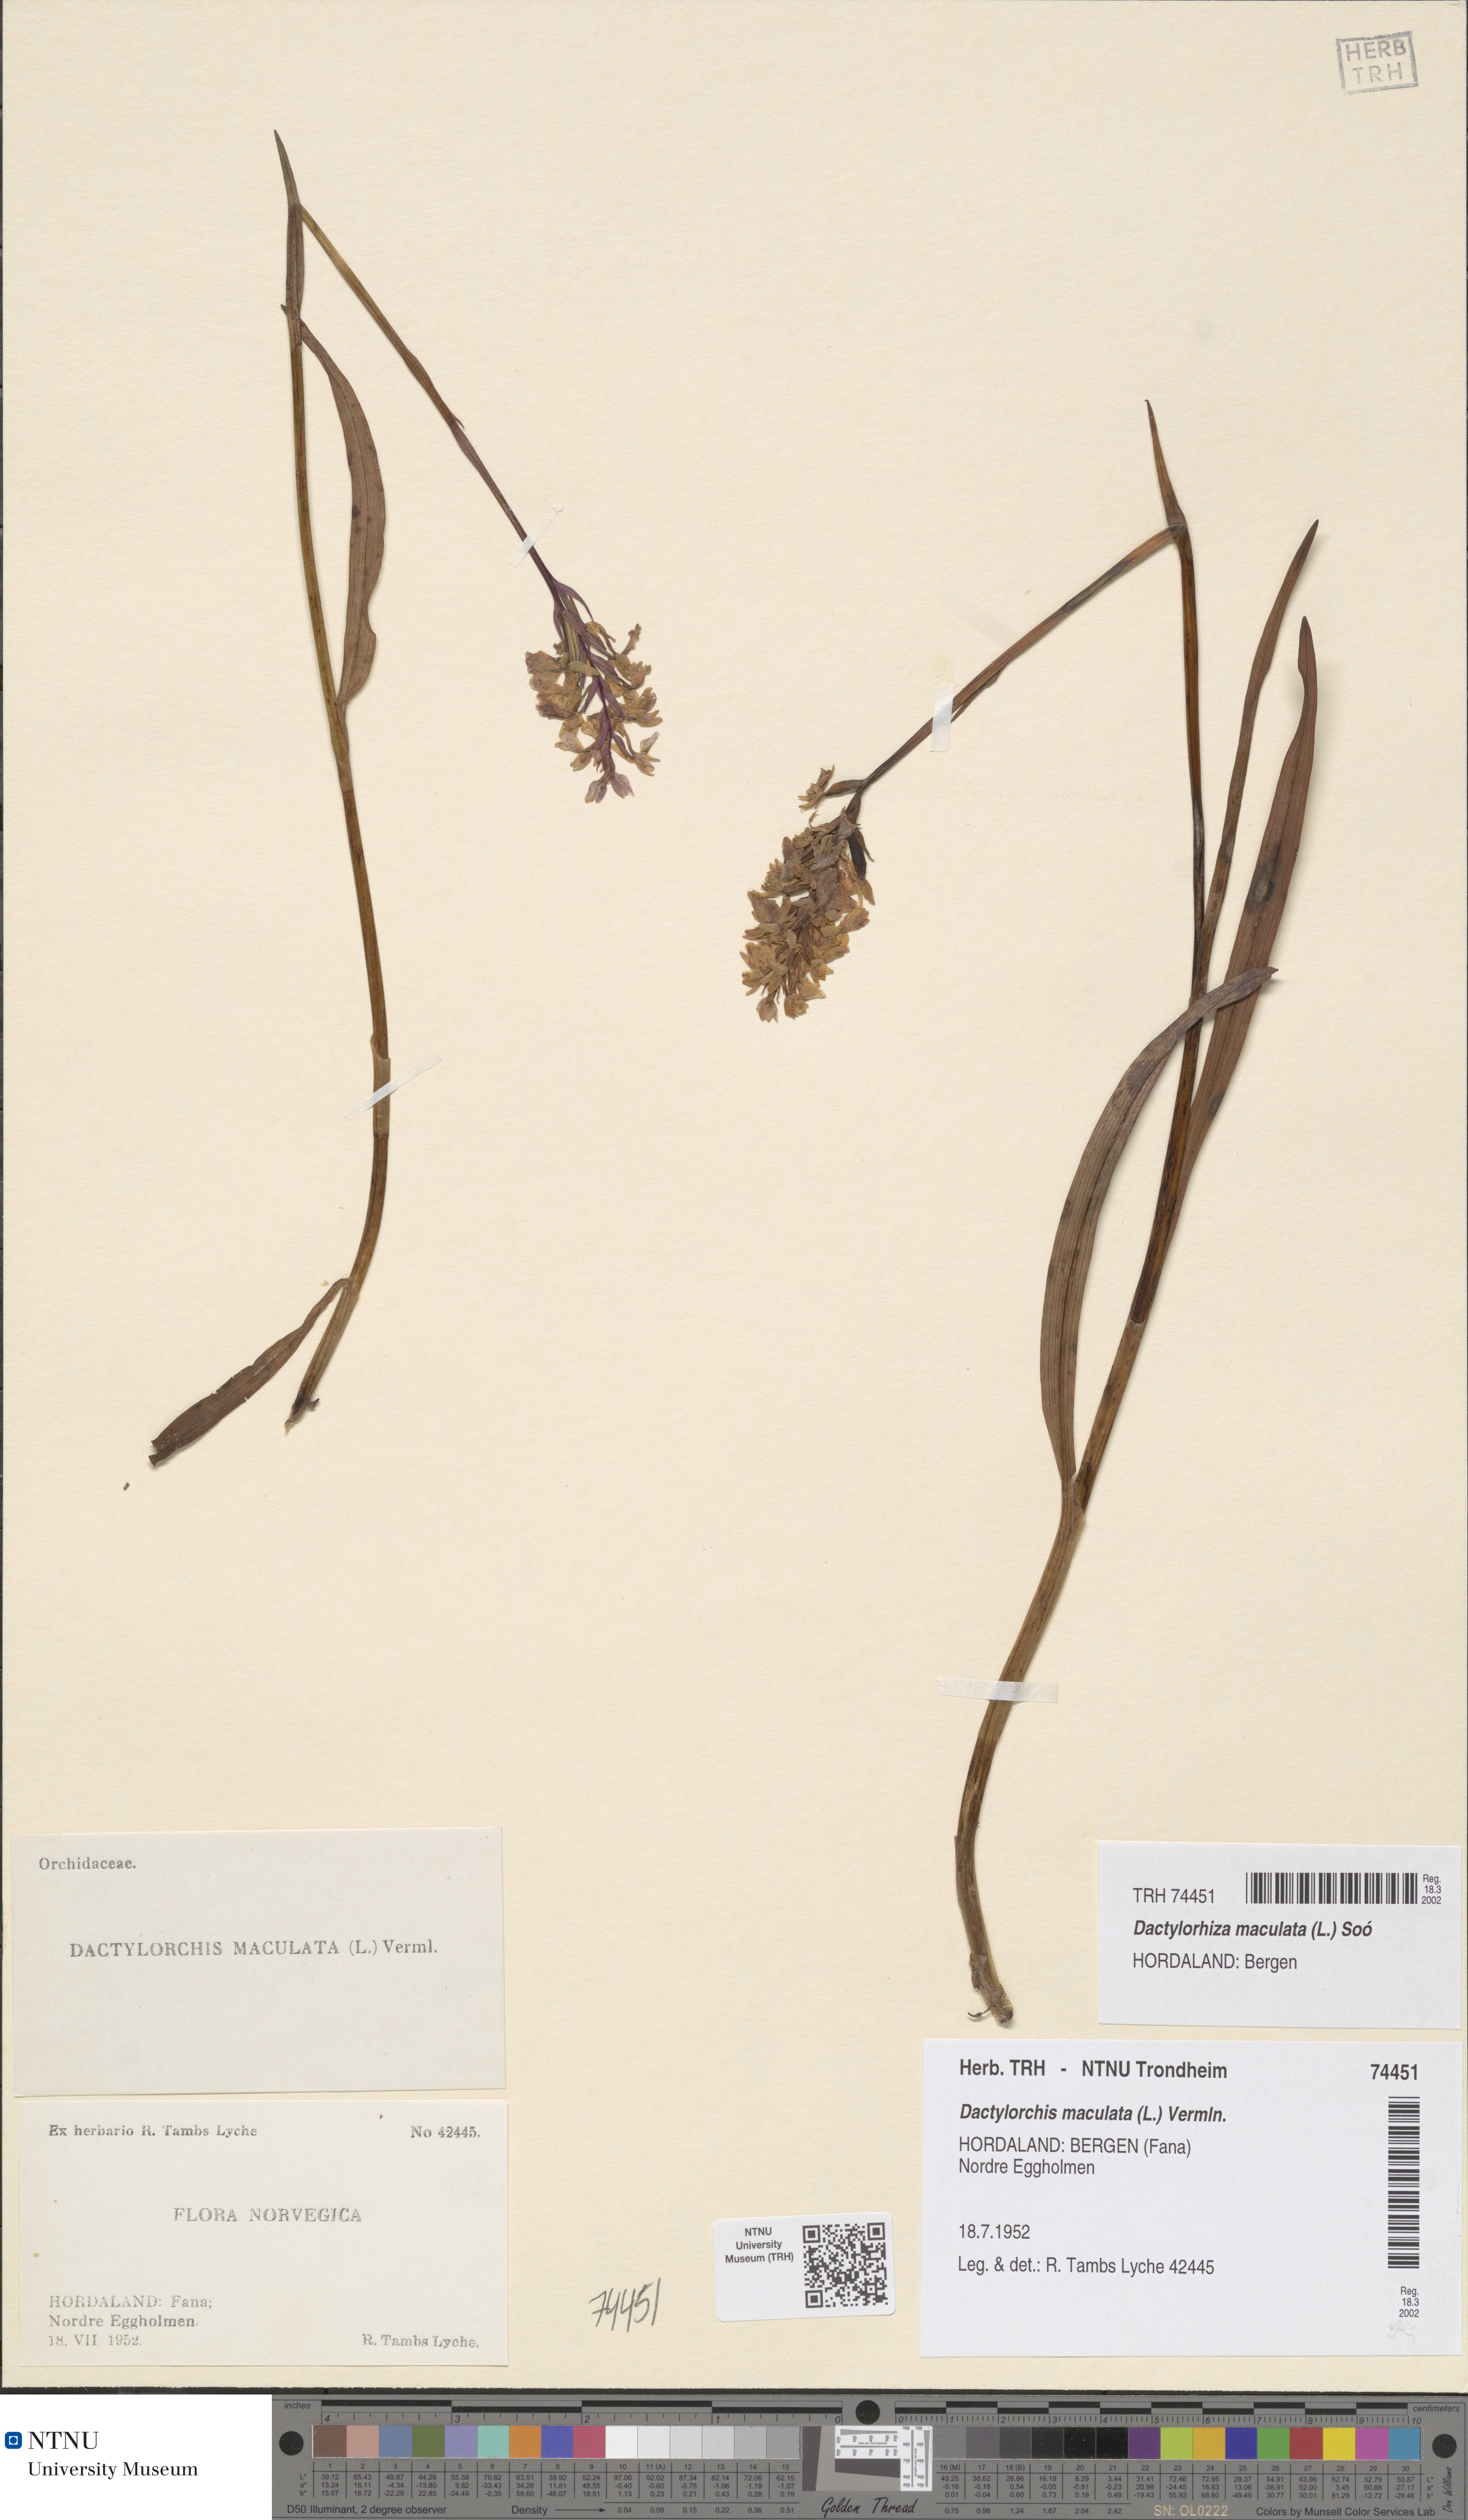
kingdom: Plantae
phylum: Tracheophyta
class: Liliopsida
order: Asparagales
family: Orchidaceae
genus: Dactylorhiza
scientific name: Dactylorhiza maculata
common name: Heath spotted-orchid
